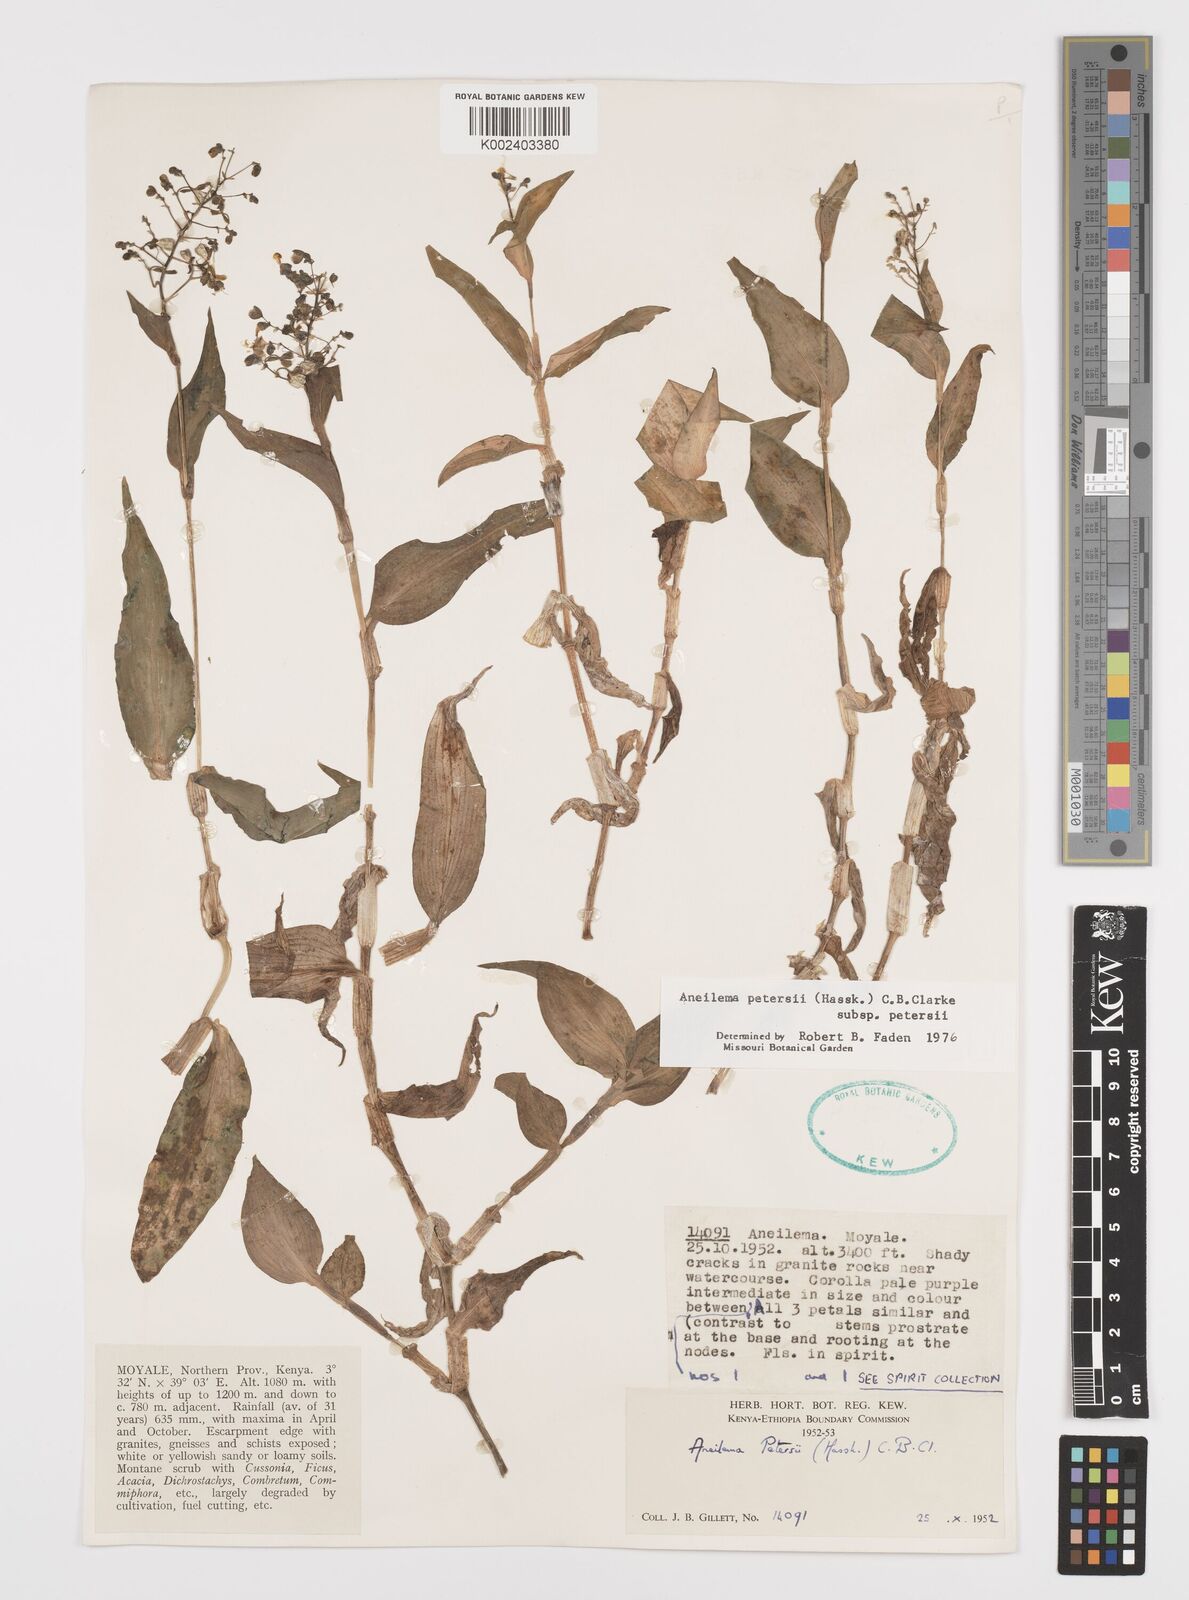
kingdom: Plantae
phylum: Tracheophyta
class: Liliopsida
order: Commelinales
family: Commelinaceae
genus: Aneilema
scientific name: Aneilema petersii
